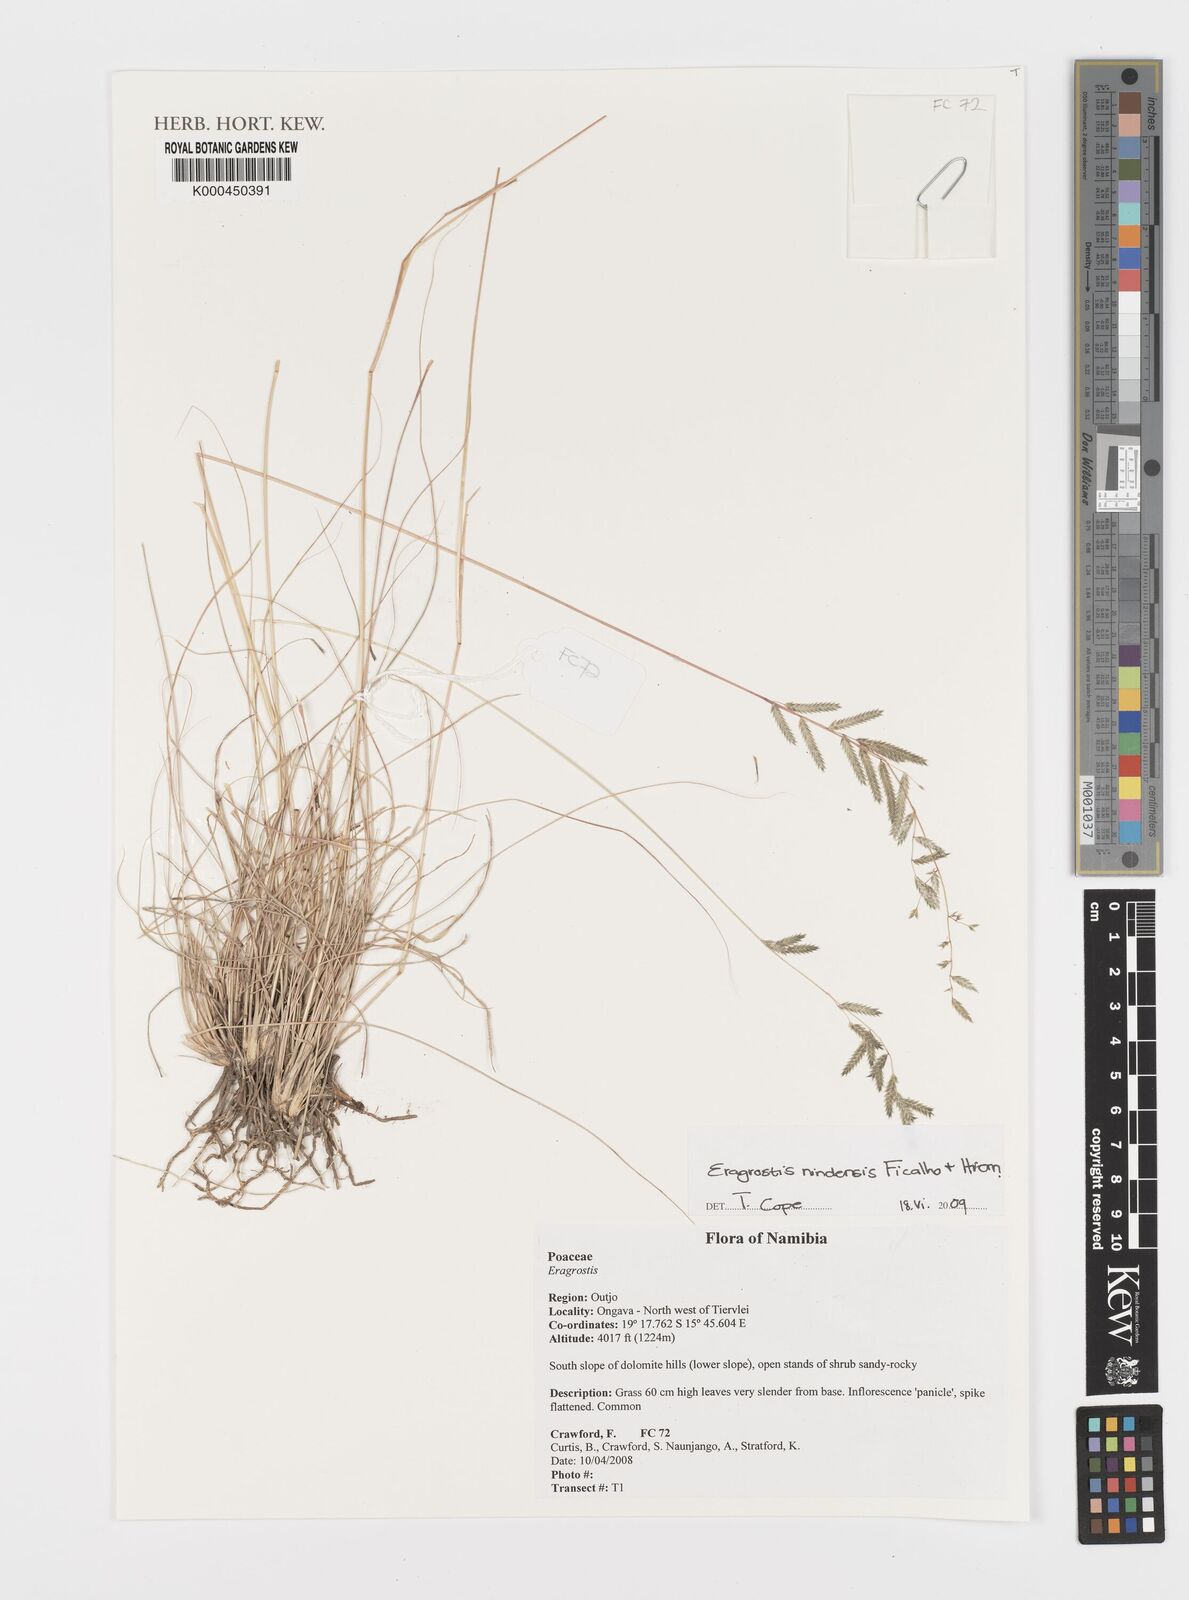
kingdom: Plantae
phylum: Tracheophyta
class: Liliopsida
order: Poales
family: Poaceae
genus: Eragrostis
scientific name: Eragrostis nindensis
